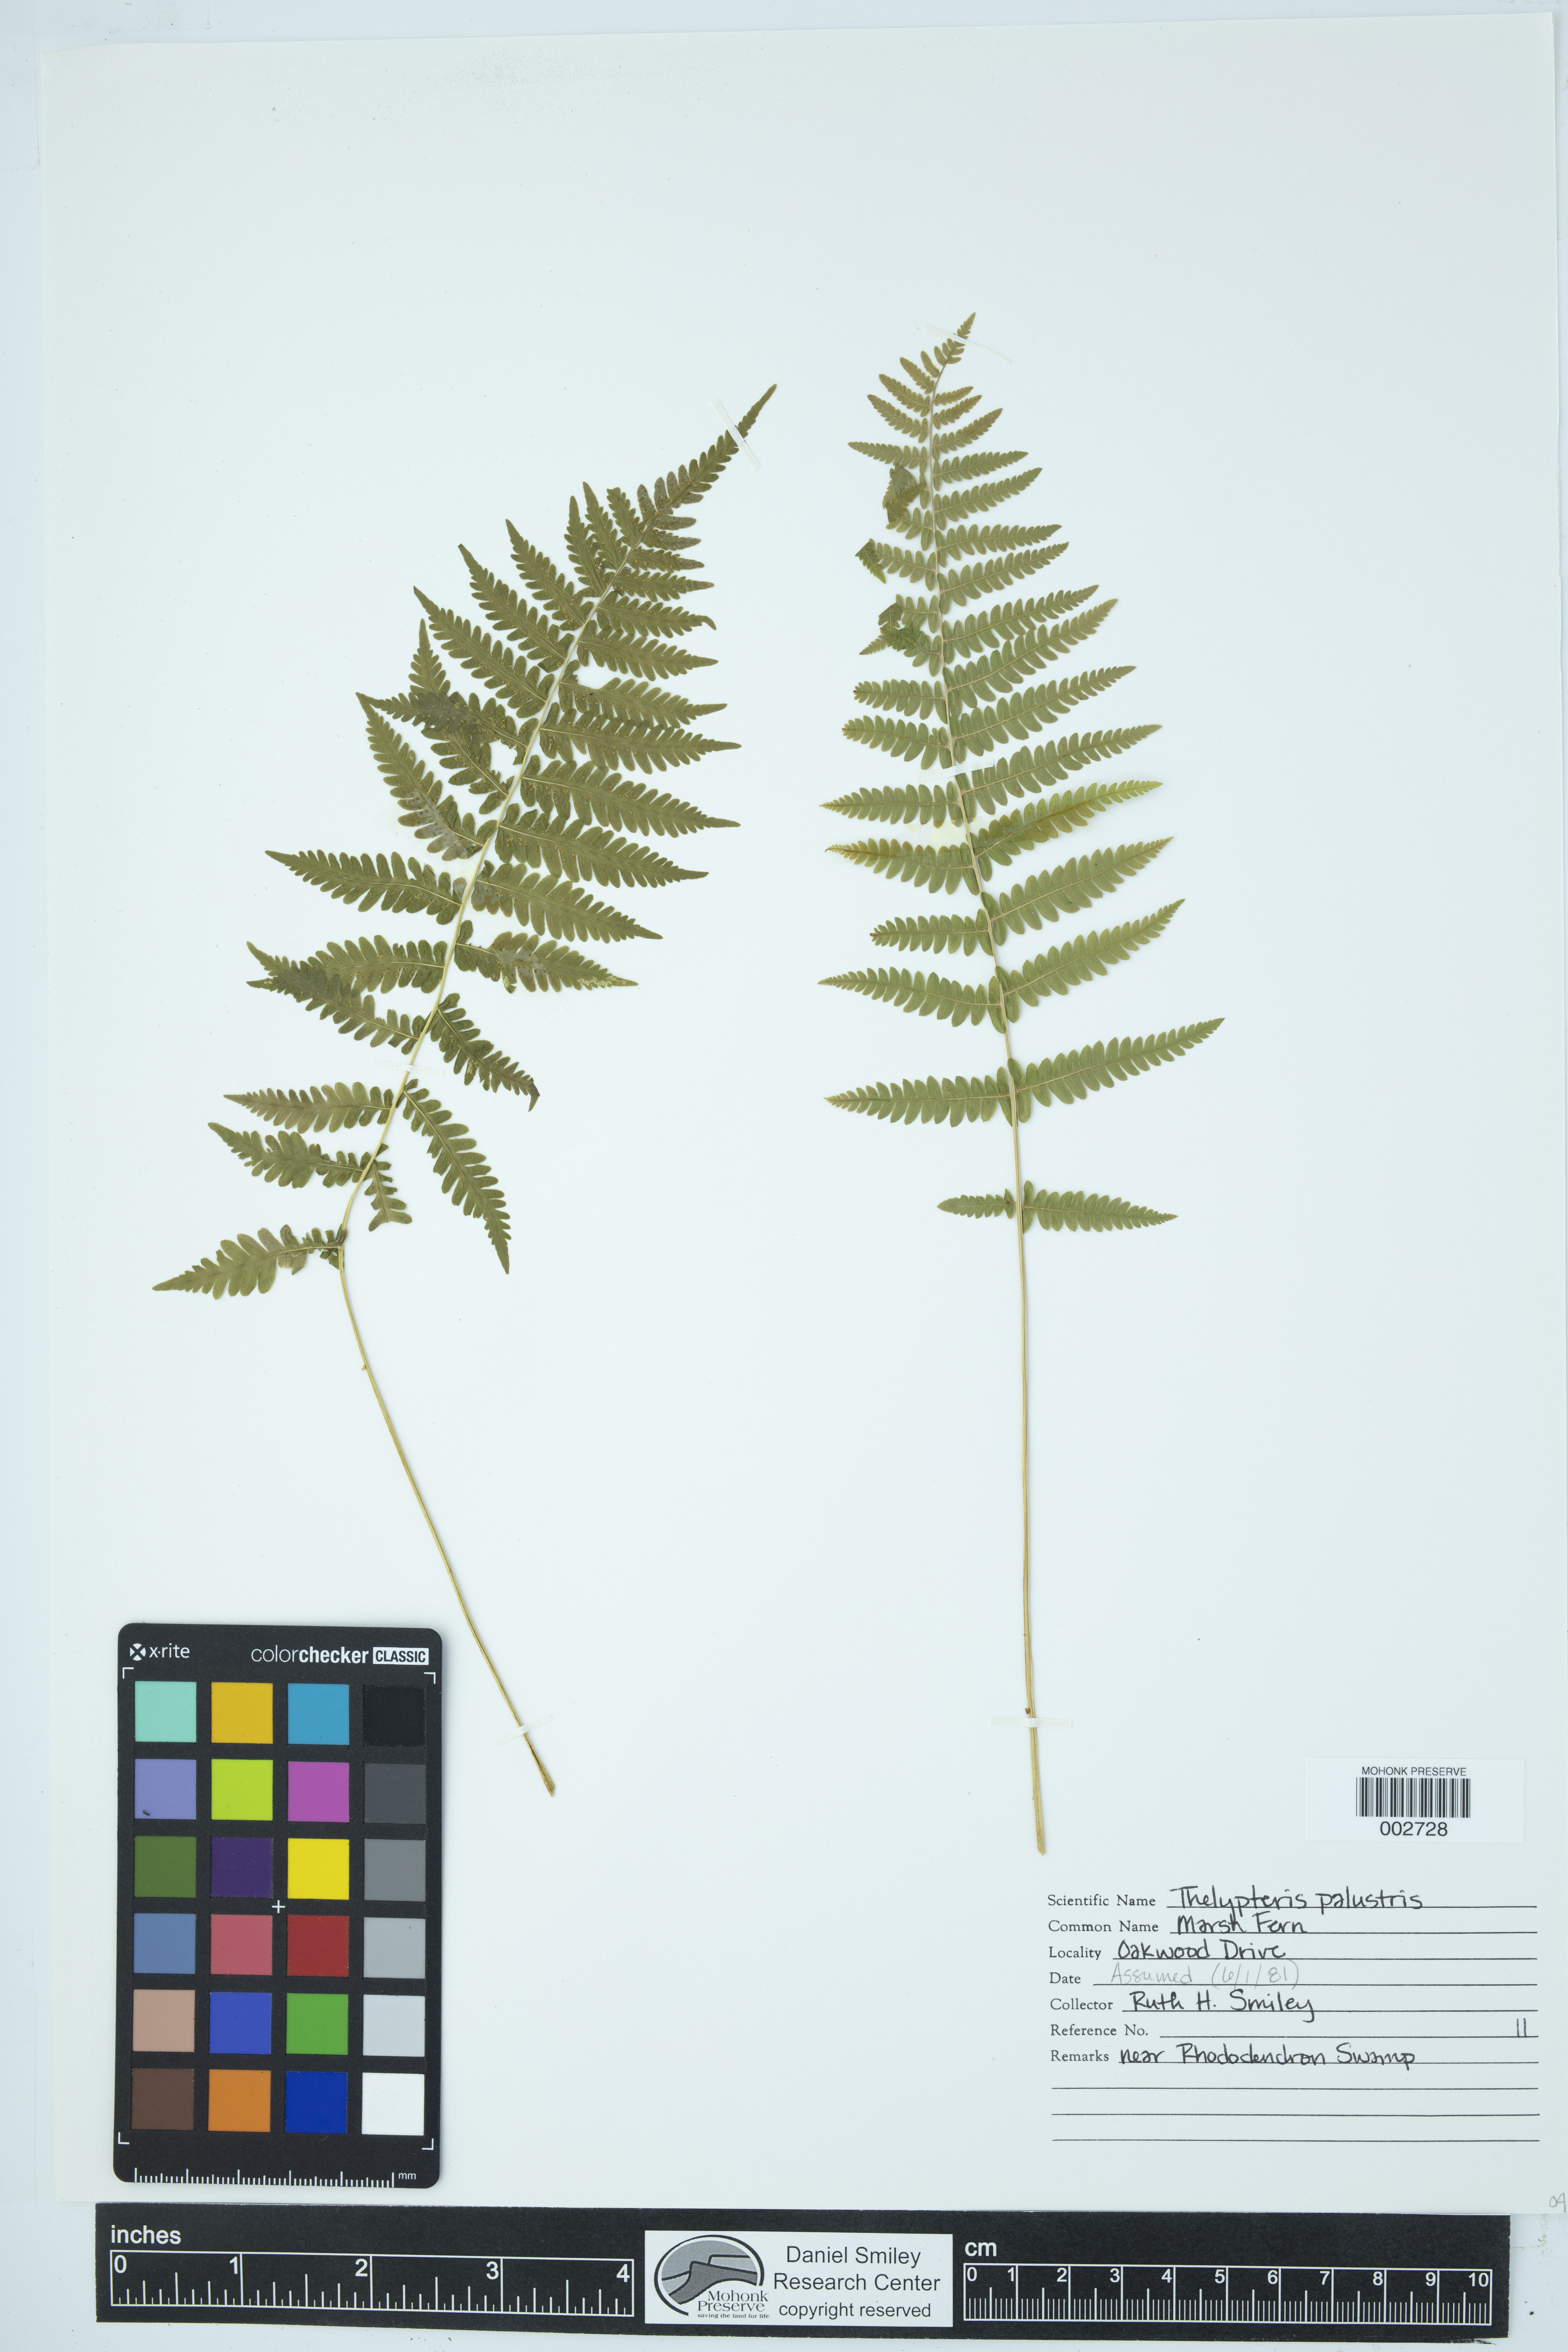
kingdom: Plantae
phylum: Tracheophyta
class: Polypodiopsida
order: Polypodiales
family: Thelypteridaceae
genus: Thelypteris
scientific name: Thelypteris confluens
